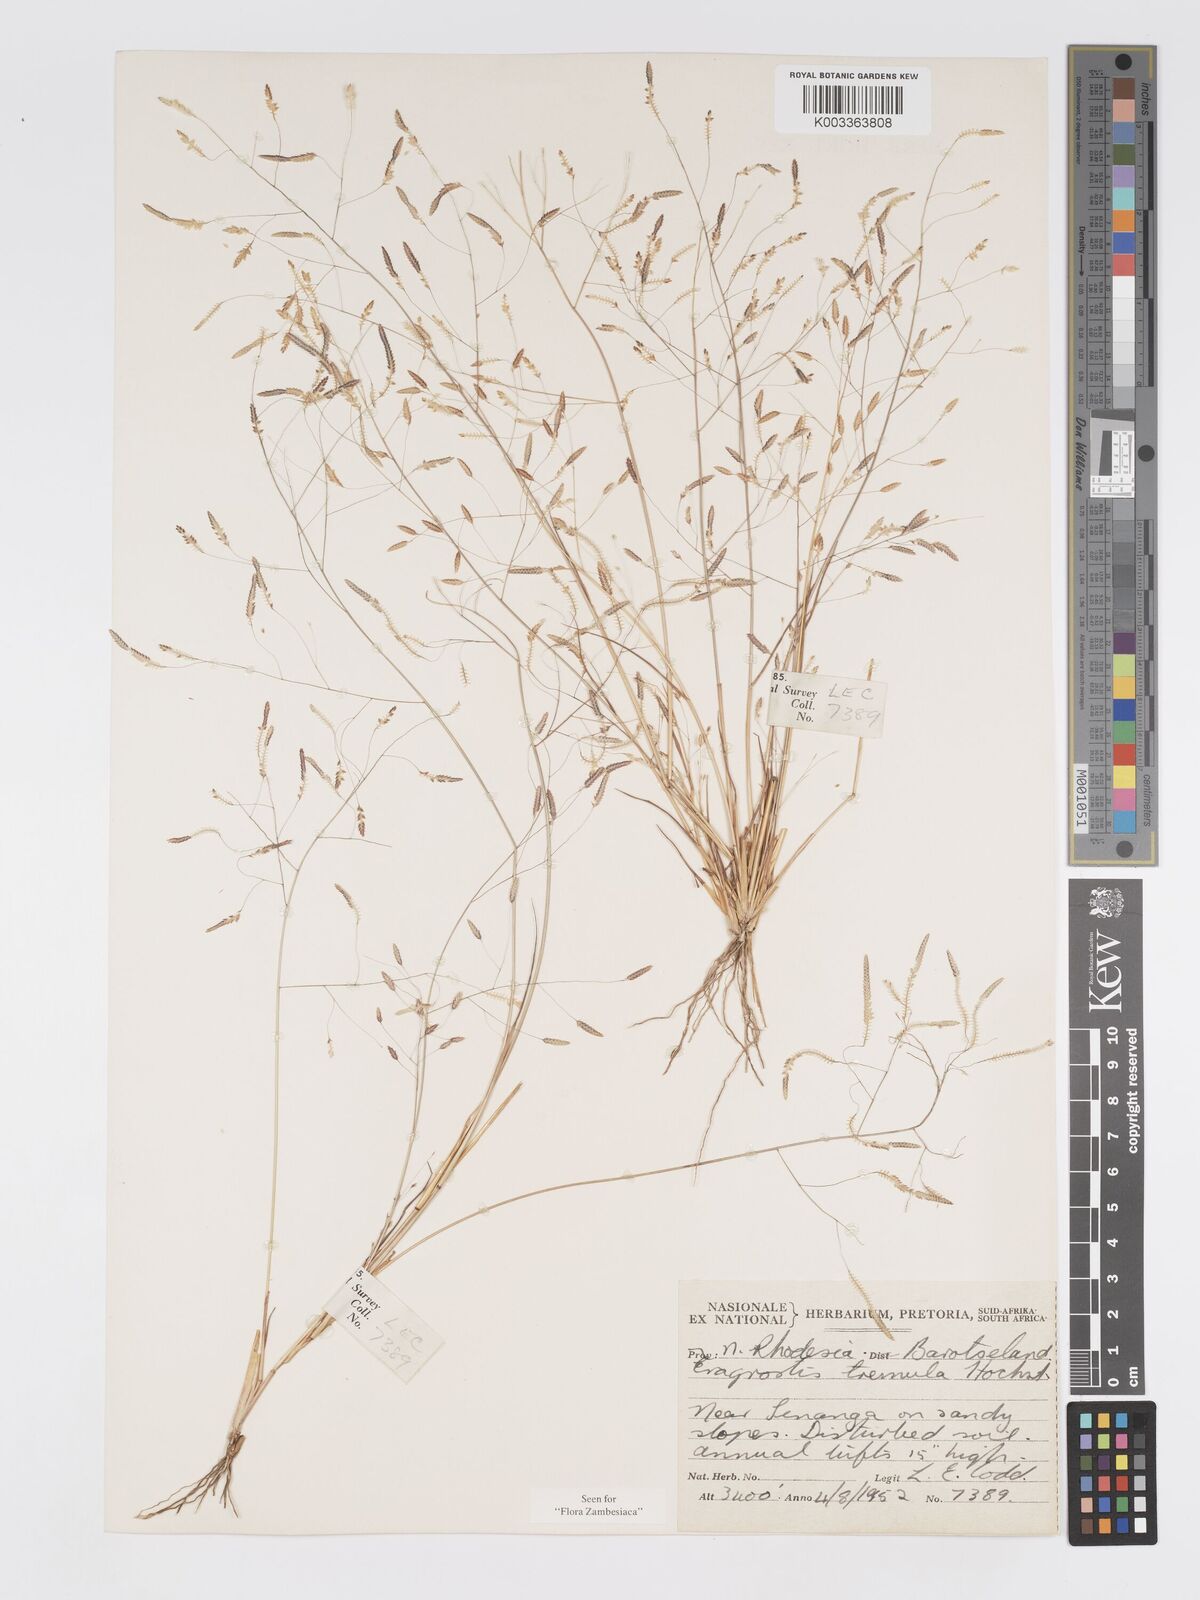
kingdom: Plantae
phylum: Tracheophyta
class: Liliopsida
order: Poales
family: Poaceae
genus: Eragrostis
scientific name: Eragrostis tremula
